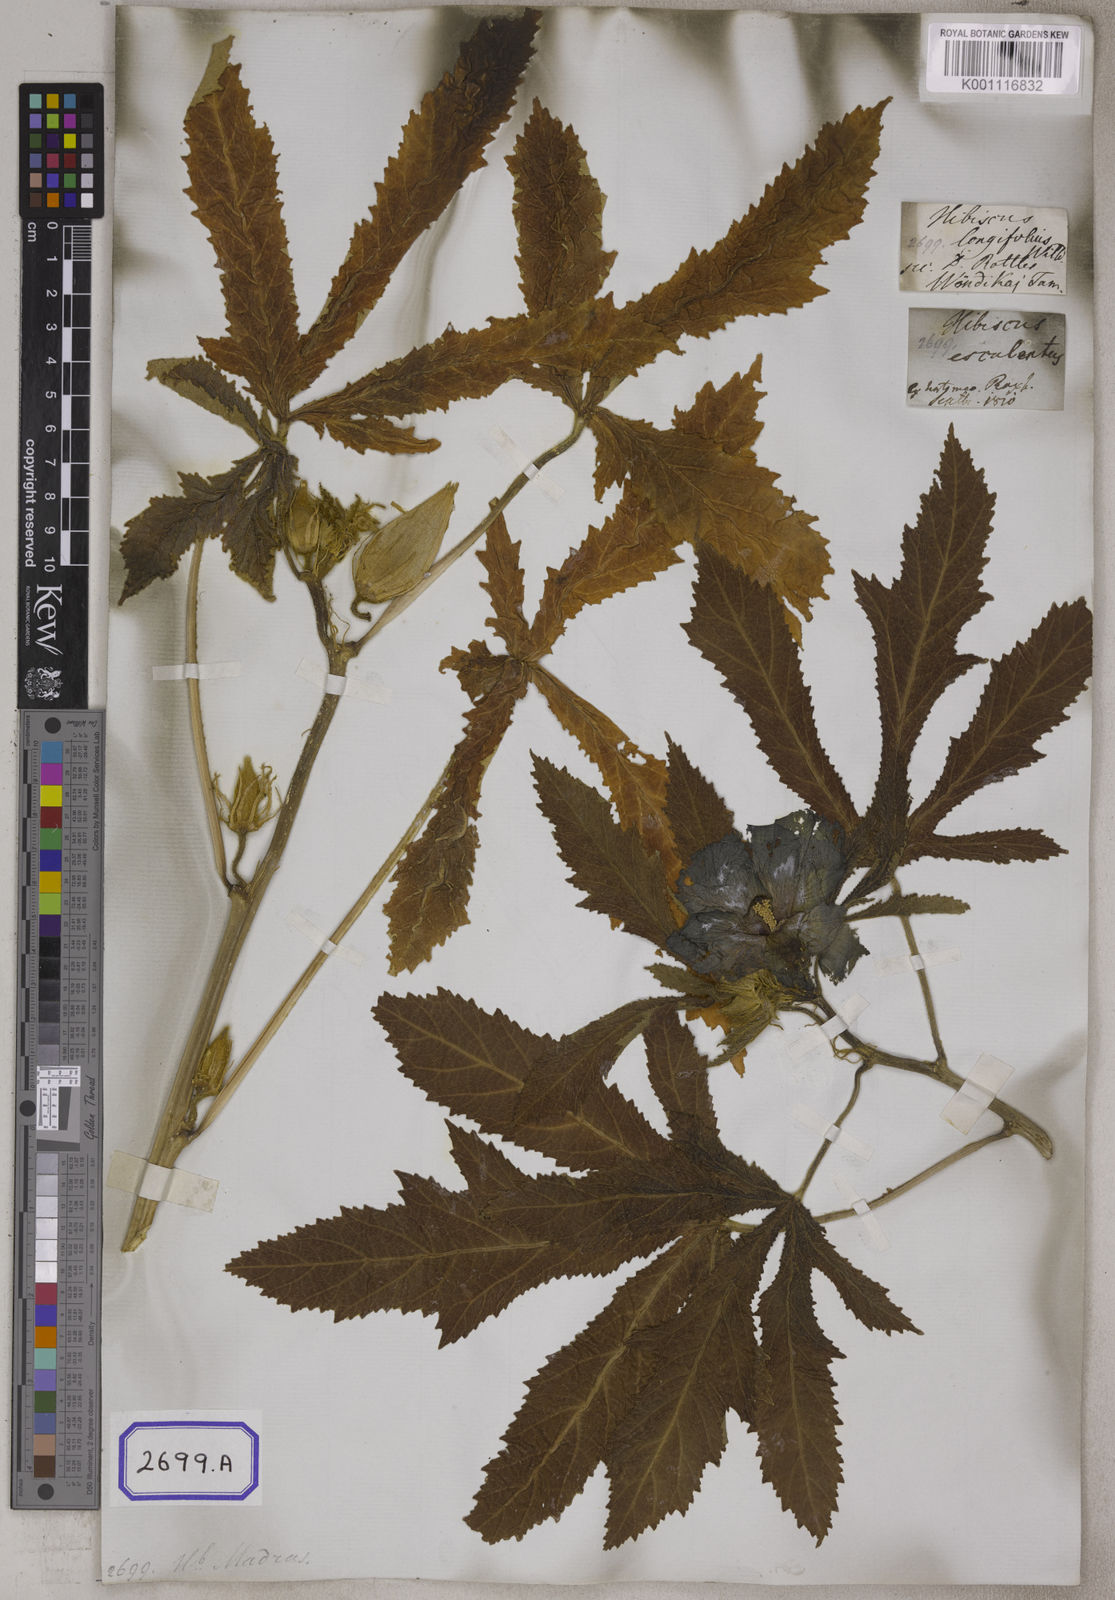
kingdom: Plantae
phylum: Tracheophyta
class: Magnoliopsida
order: Malvales
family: Malvaceae
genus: Abelmoschus
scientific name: Abelmoschus esculentus
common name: Okra
